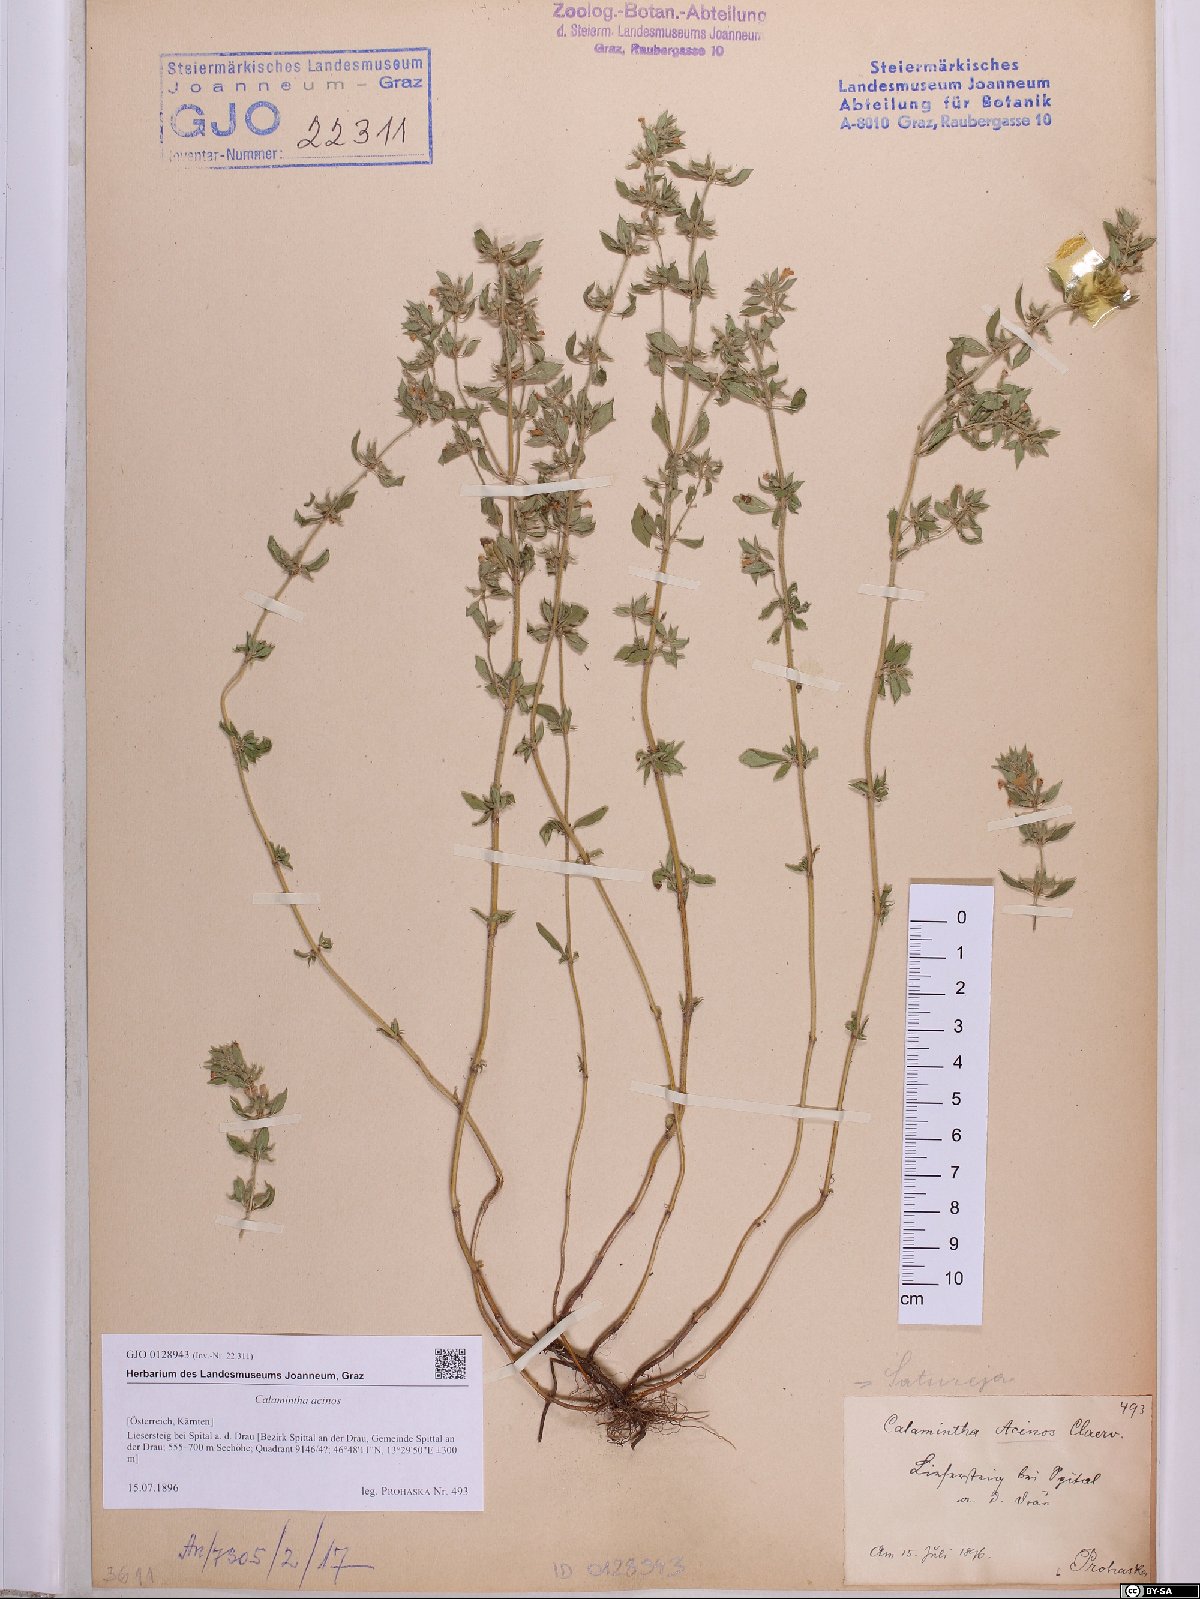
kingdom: Plantae
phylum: Tracheophyta
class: Magnoliopsida
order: Lamiales
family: Lamiaceae
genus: Clinopodium
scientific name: Clinopodium acinos
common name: Basil thyme
